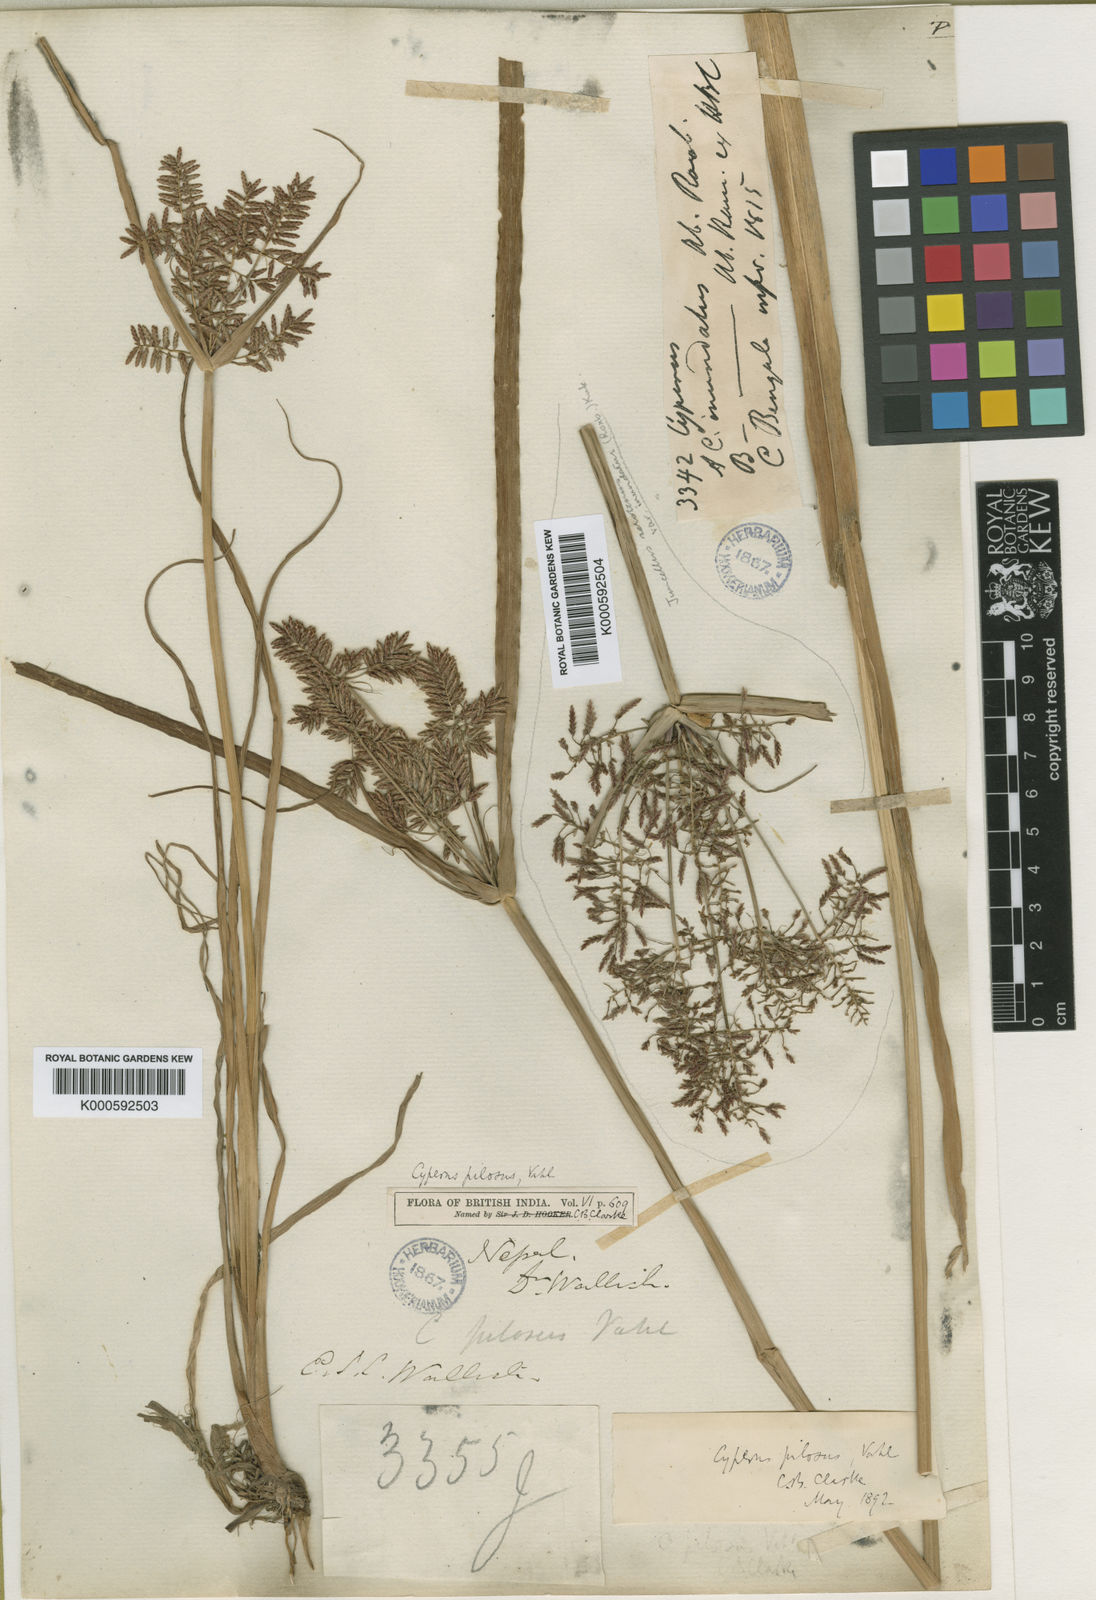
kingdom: Plantae
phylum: Tracheophyta
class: Liliopsida
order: Poales
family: Cyperaceae
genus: Cyperus
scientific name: Cyperus pilosus
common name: Fuzzy flatsedge
